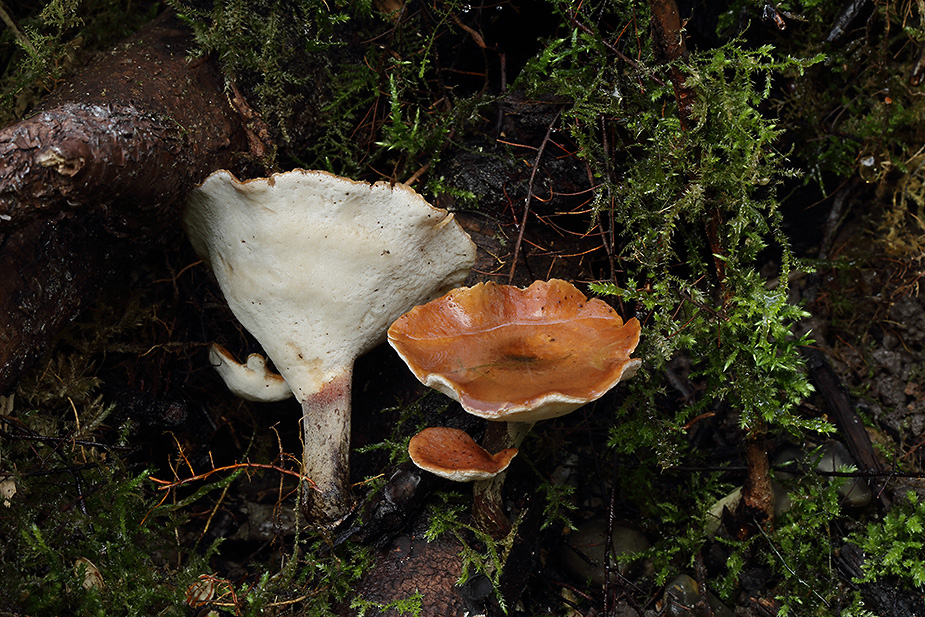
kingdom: Fungi
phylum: Basidiomycota
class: Agaricomycetes
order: Polyporales
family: Polyporaceae
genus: Picipes
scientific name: Picipes tubaeformis
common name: trompet-stilkporesvamp
